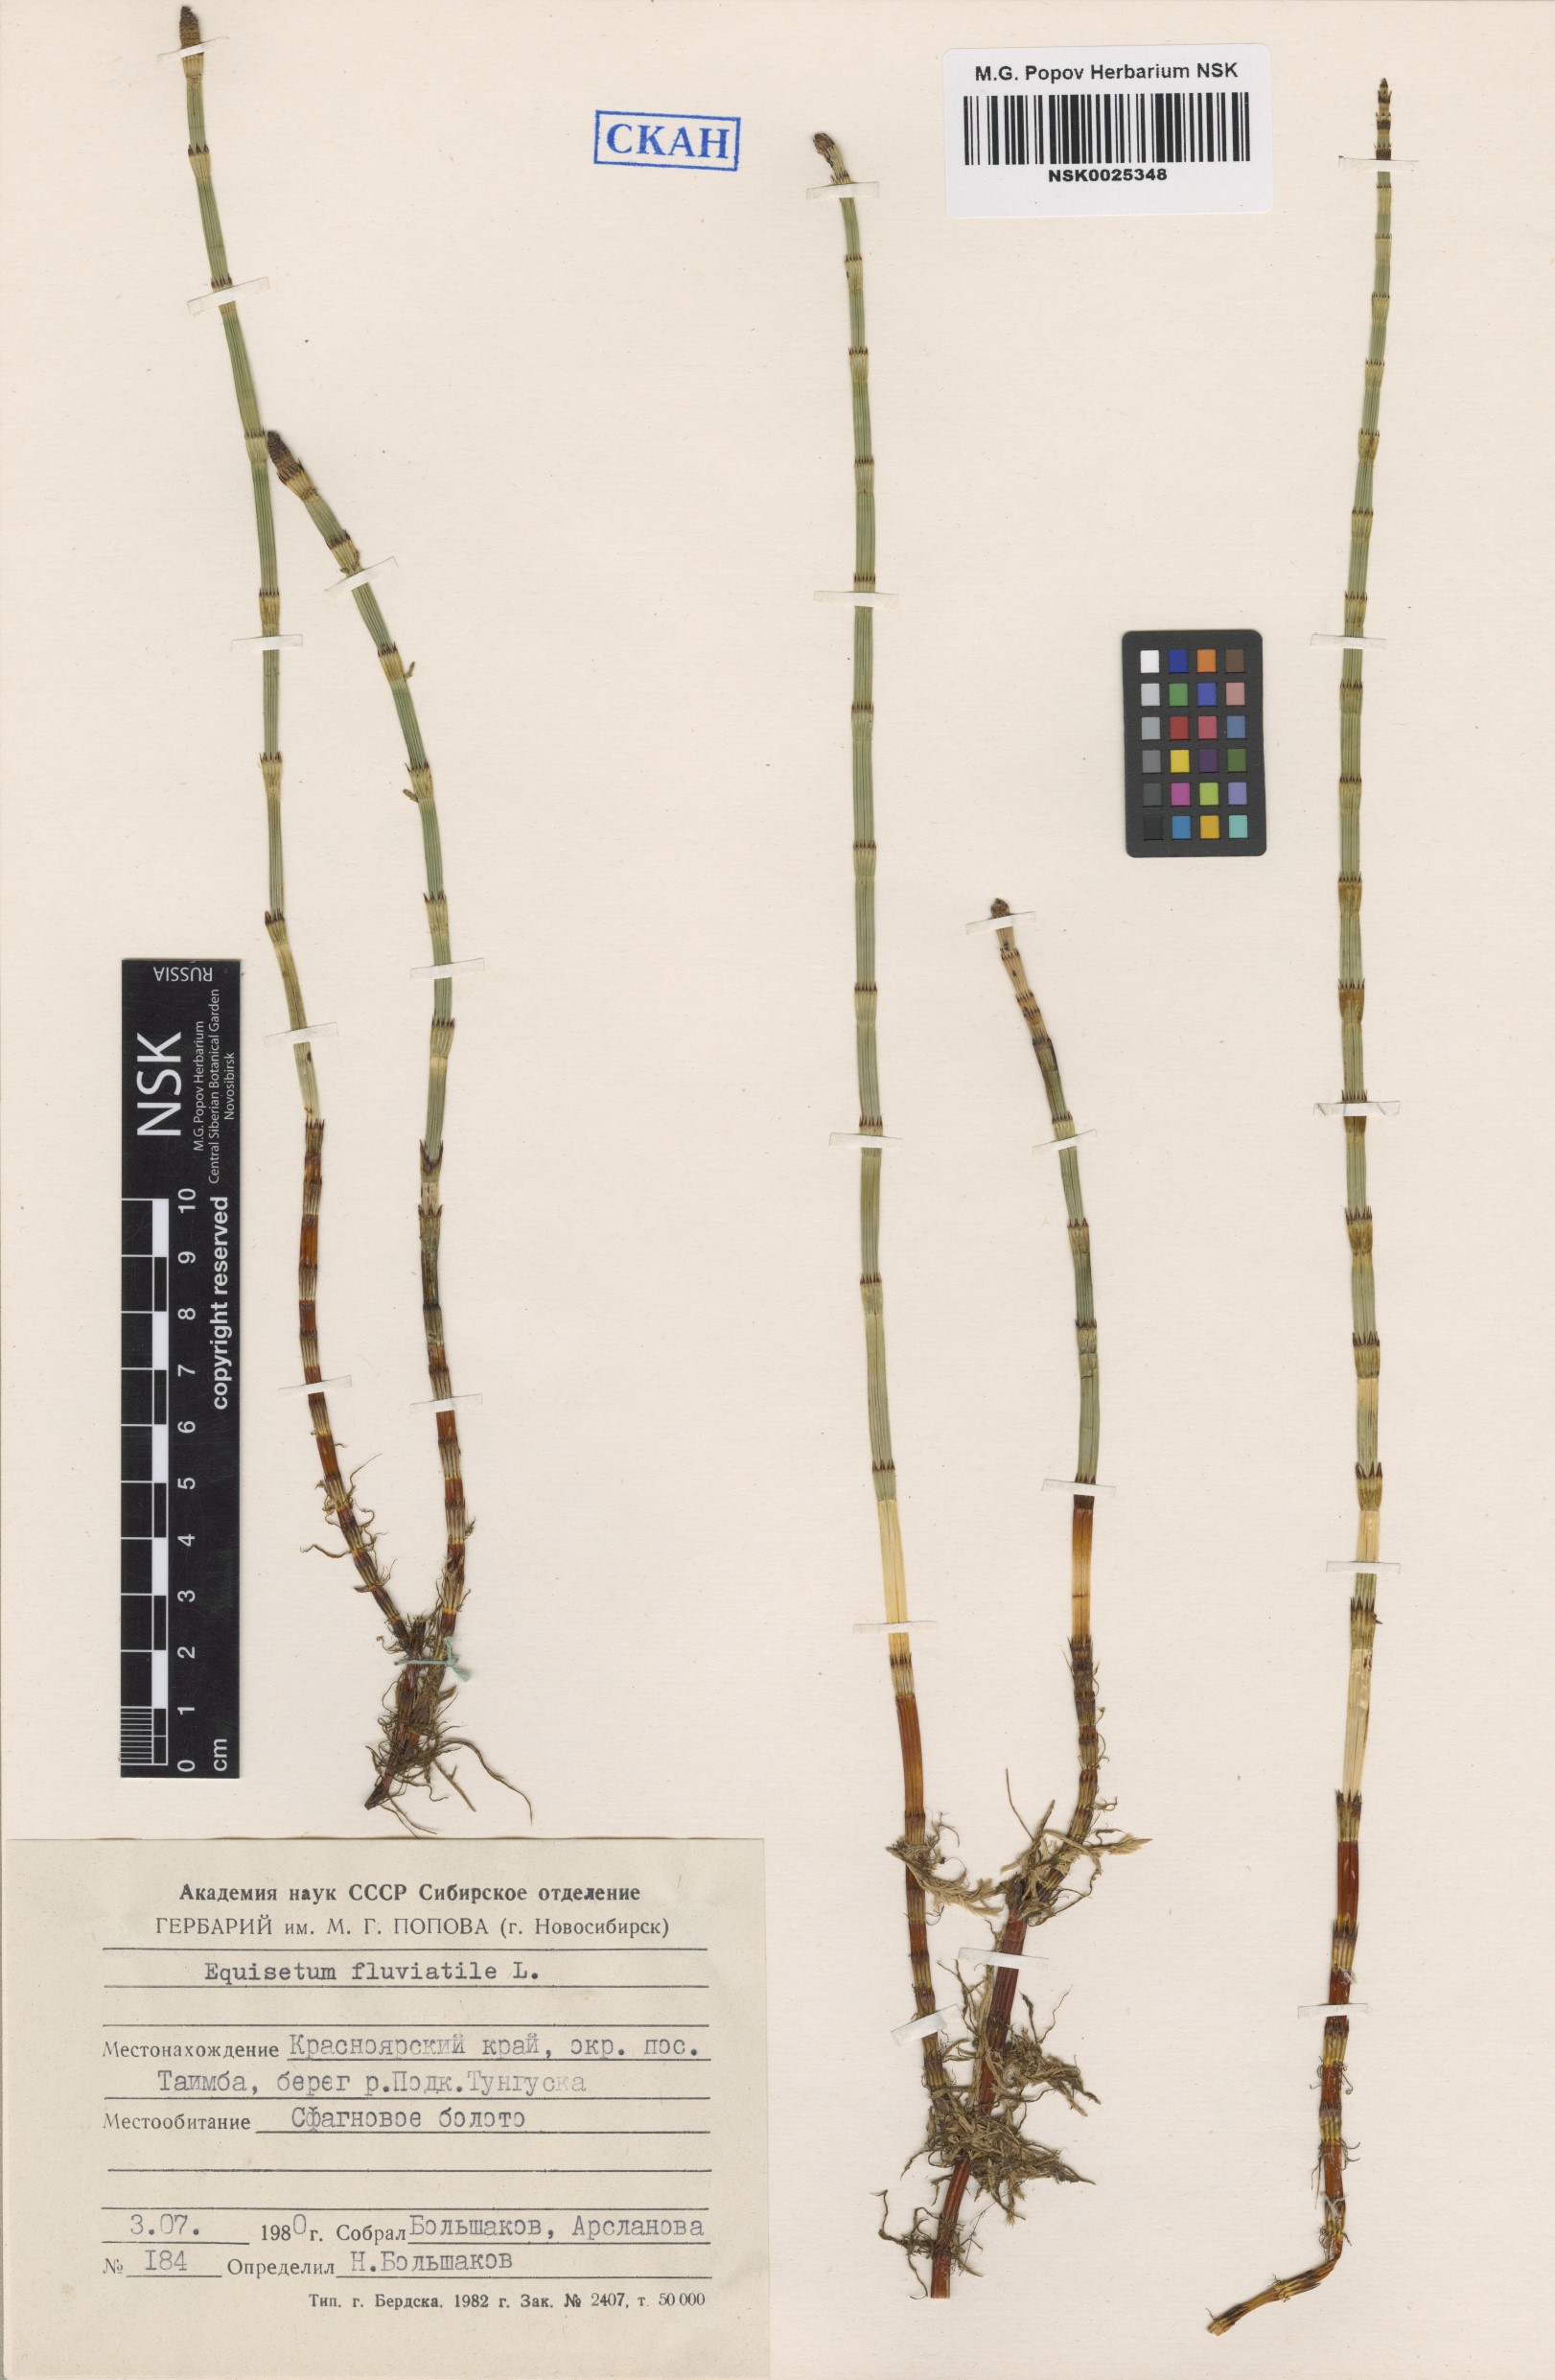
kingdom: Plantae
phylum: Tracheophyta
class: Polypodiopsida
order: Equisetales
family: Equisetaceae
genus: Equisetum
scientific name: Equisetum fluviatile
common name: Water horsetail
